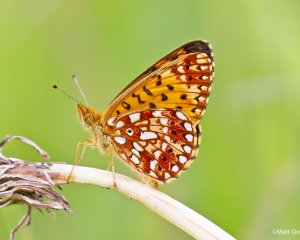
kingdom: Animalia
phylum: Arthropoda
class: Insecta
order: Lepidoptera
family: Nymphalidae
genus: Boloria
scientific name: Boloria selene
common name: Silver-bordered Fritillary
